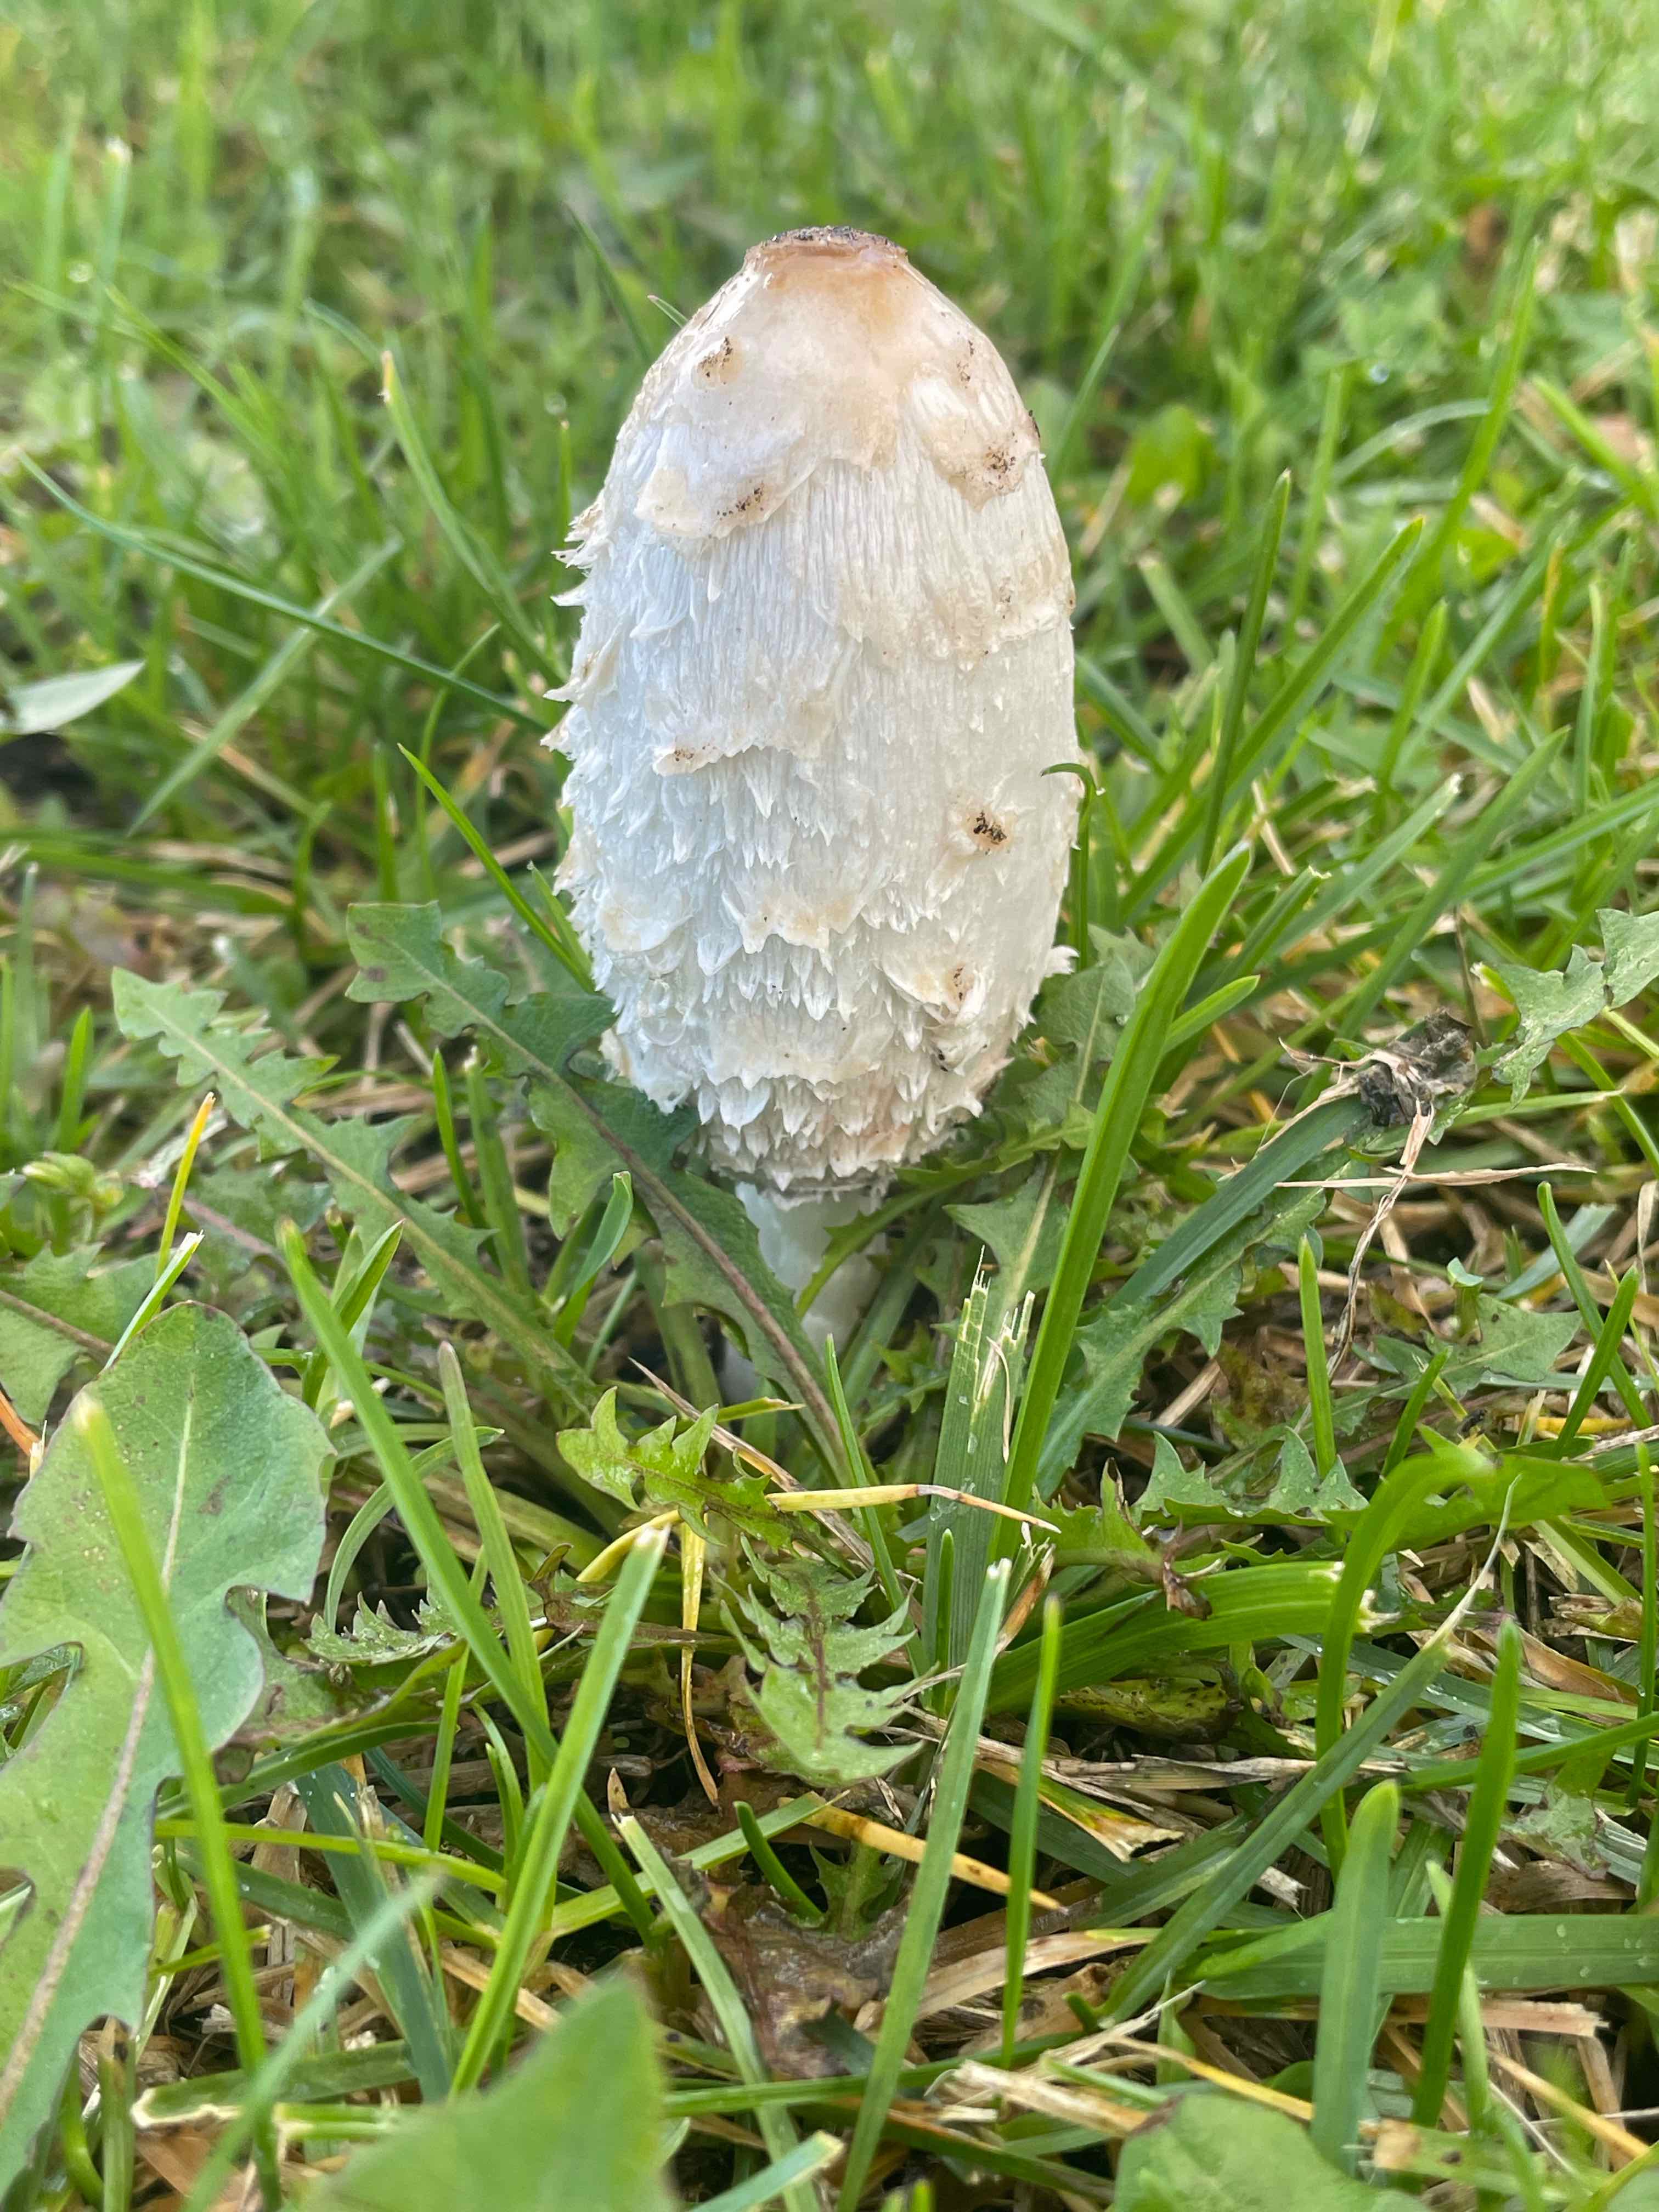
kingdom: Fungi
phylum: Basidiomycota
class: Agaricomycetes
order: Agaricales
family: Agaricaceae
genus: Coprinus
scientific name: Coprinus comatus
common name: stor parykhat
